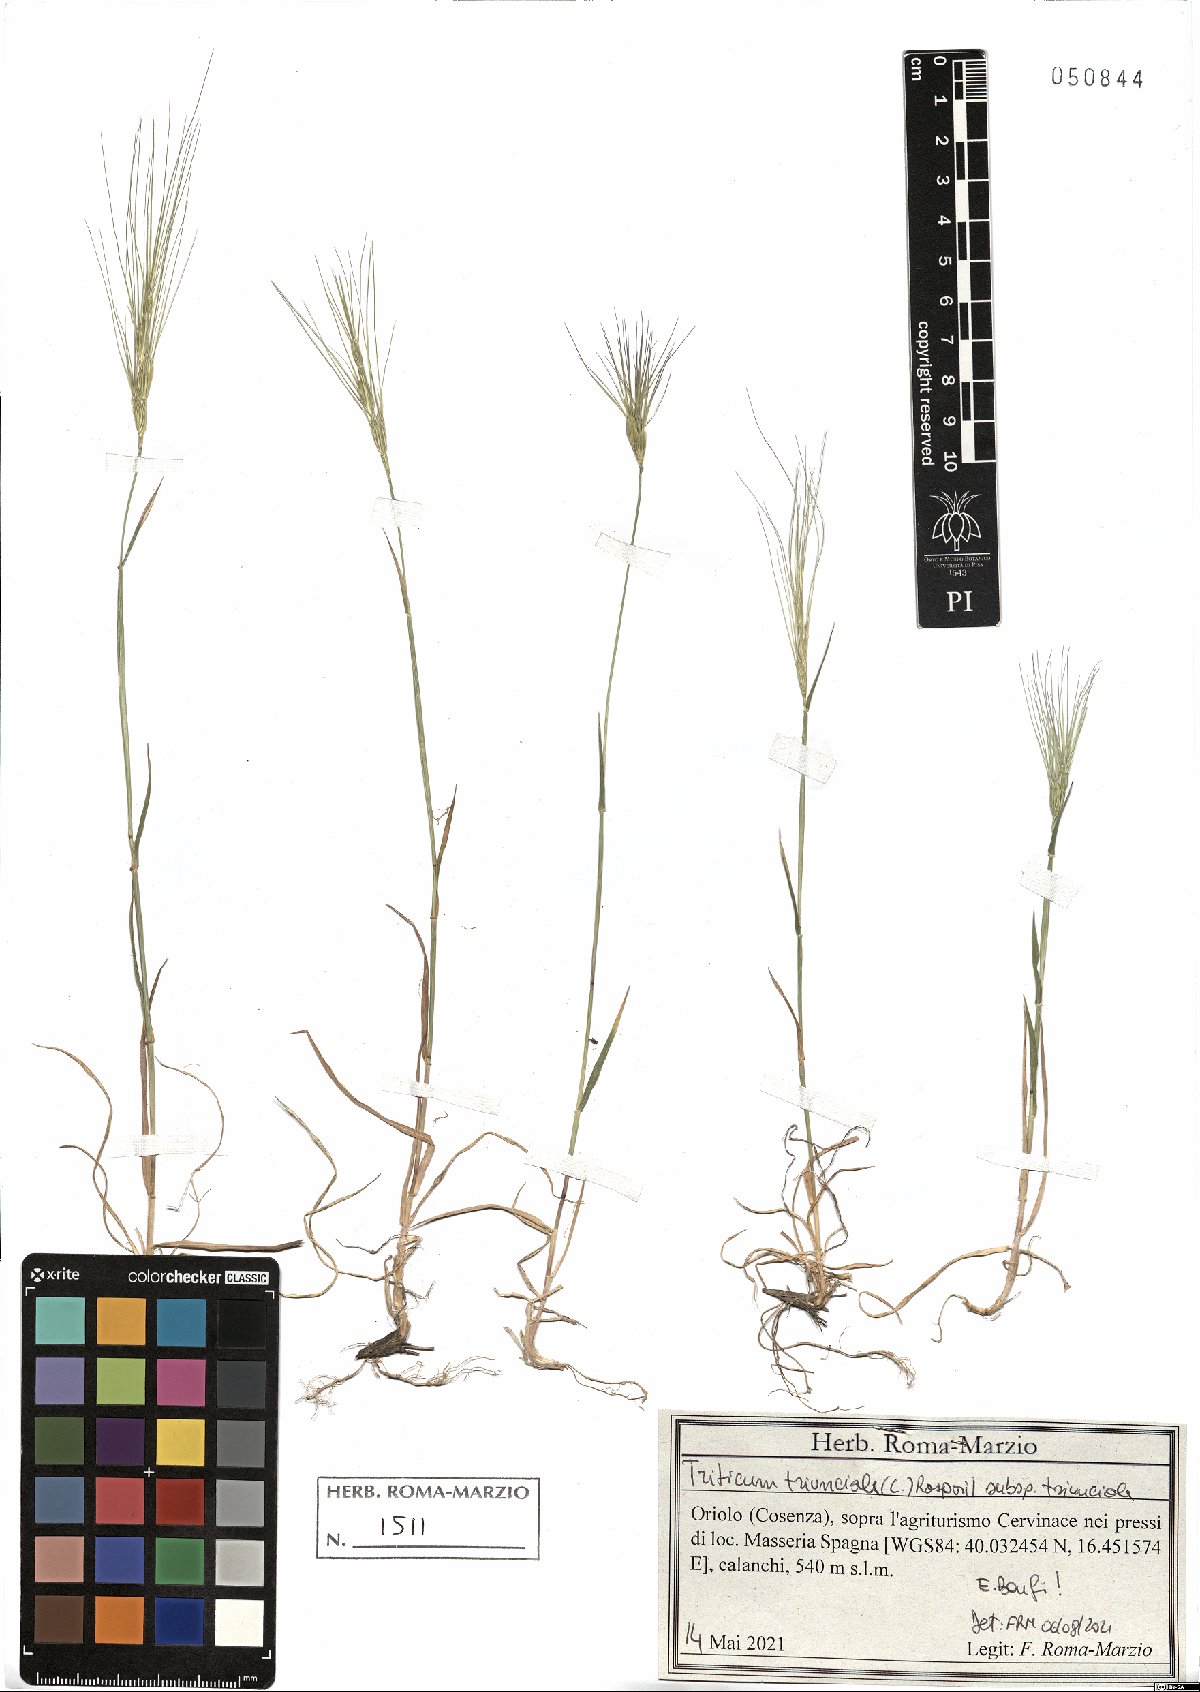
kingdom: Plantae
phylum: Tracheophyta
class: Liliopsida
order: Poales
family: Poaceae
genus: Aegilops
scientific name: Aegilops triuncialis
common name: Barb goat grass
